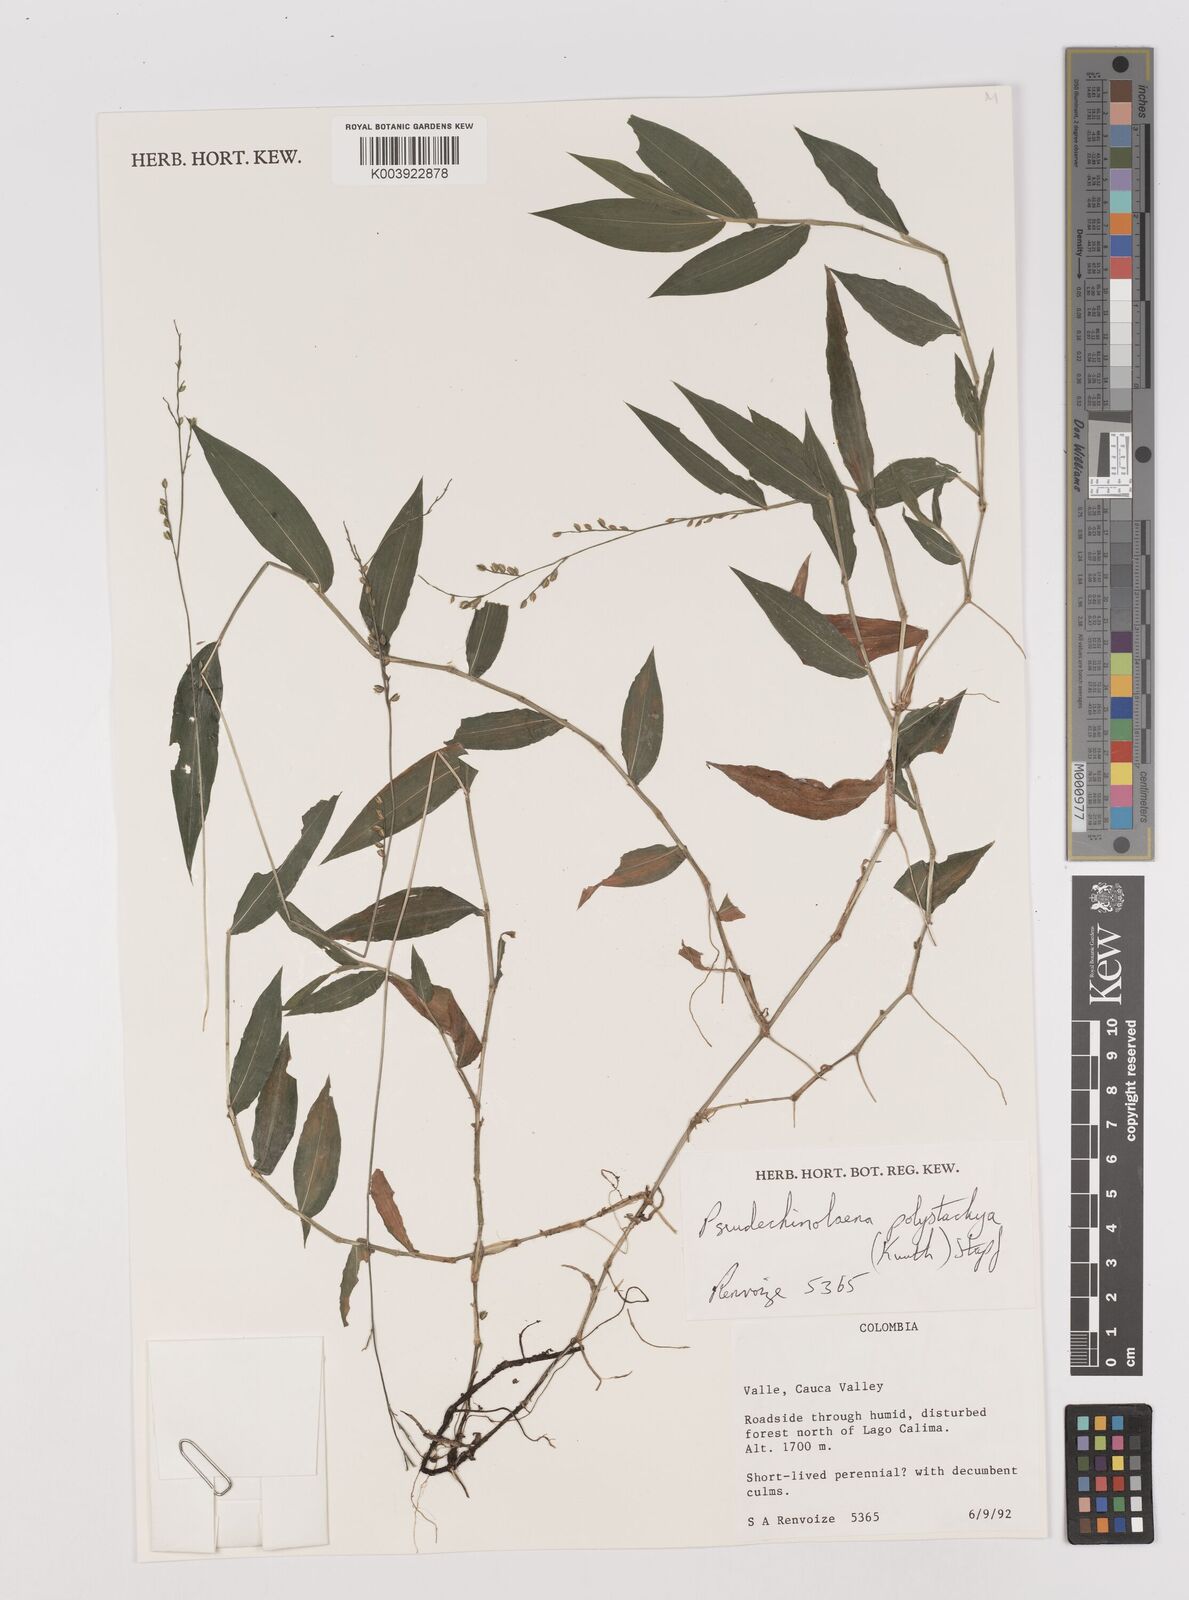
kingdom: Plantae
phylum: Tracheophyta
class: Liliopsida
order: Poales
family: Poaceae
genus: Pseudechinolaena
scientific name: Pseudechinolaena polystachya
